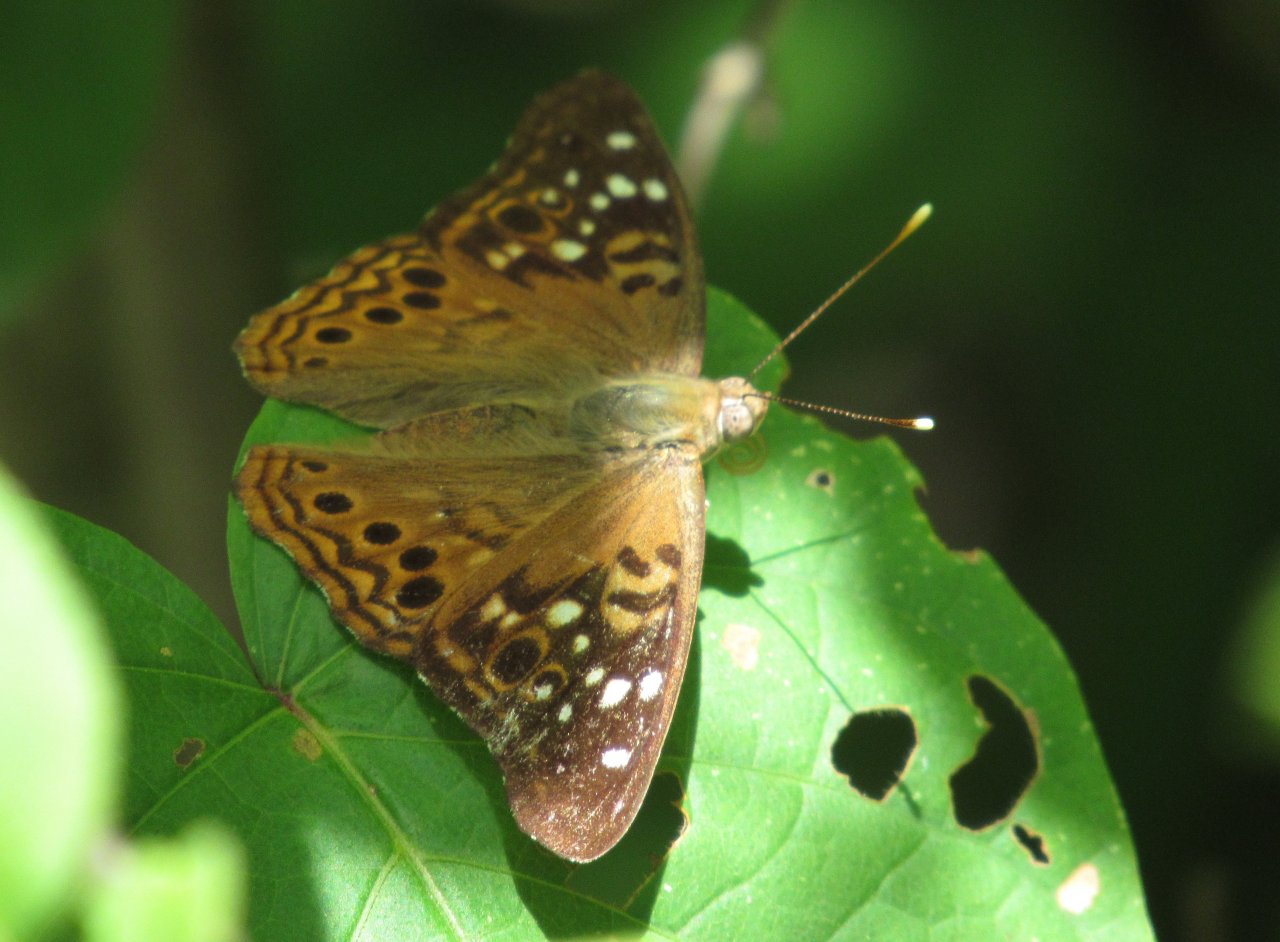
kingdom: Animalia
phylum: Arthropoda
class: Insecta
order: Lepidoptera
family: Nymphalidae
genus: Asterocampa
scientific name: Asterocampa celtis
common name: Hackberry Emperor
